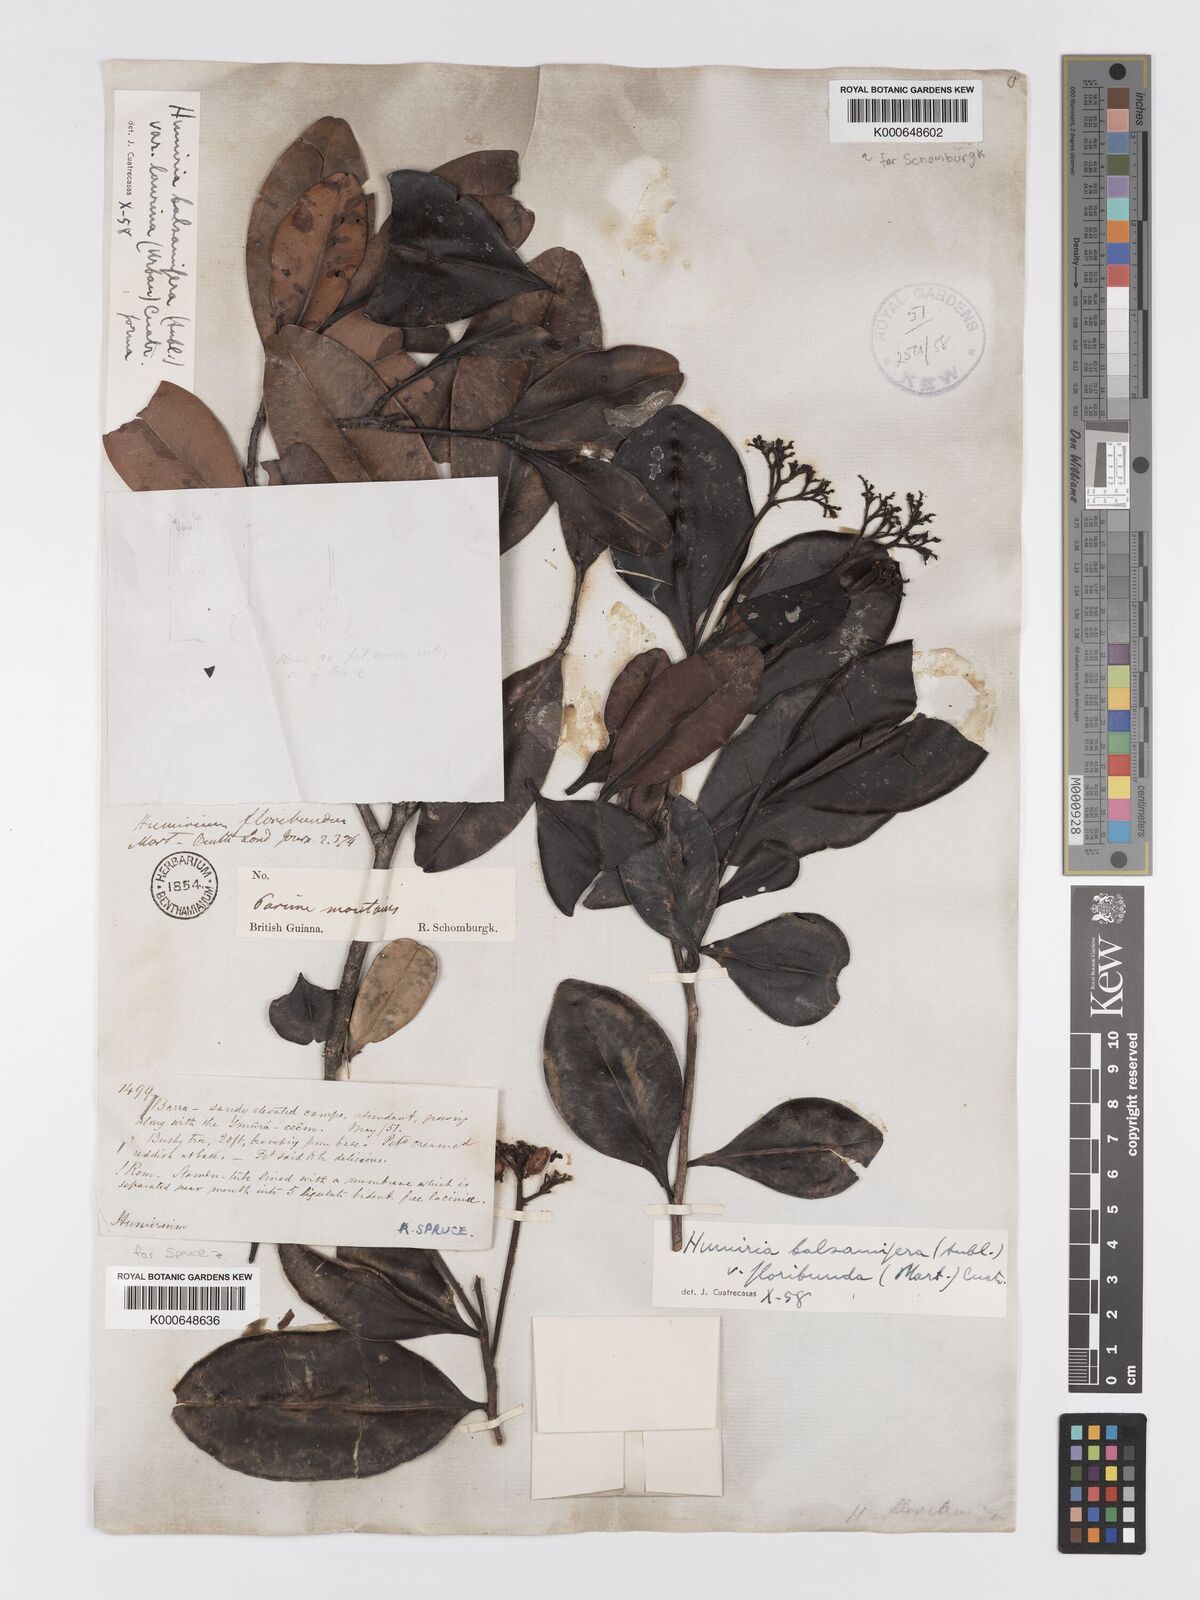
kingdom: Plantae
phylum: Tracheophyta
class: Magnoliopsida
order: Malpighiales
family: Humiriaceae
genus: Humiria
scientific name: Humiria balsamifera
